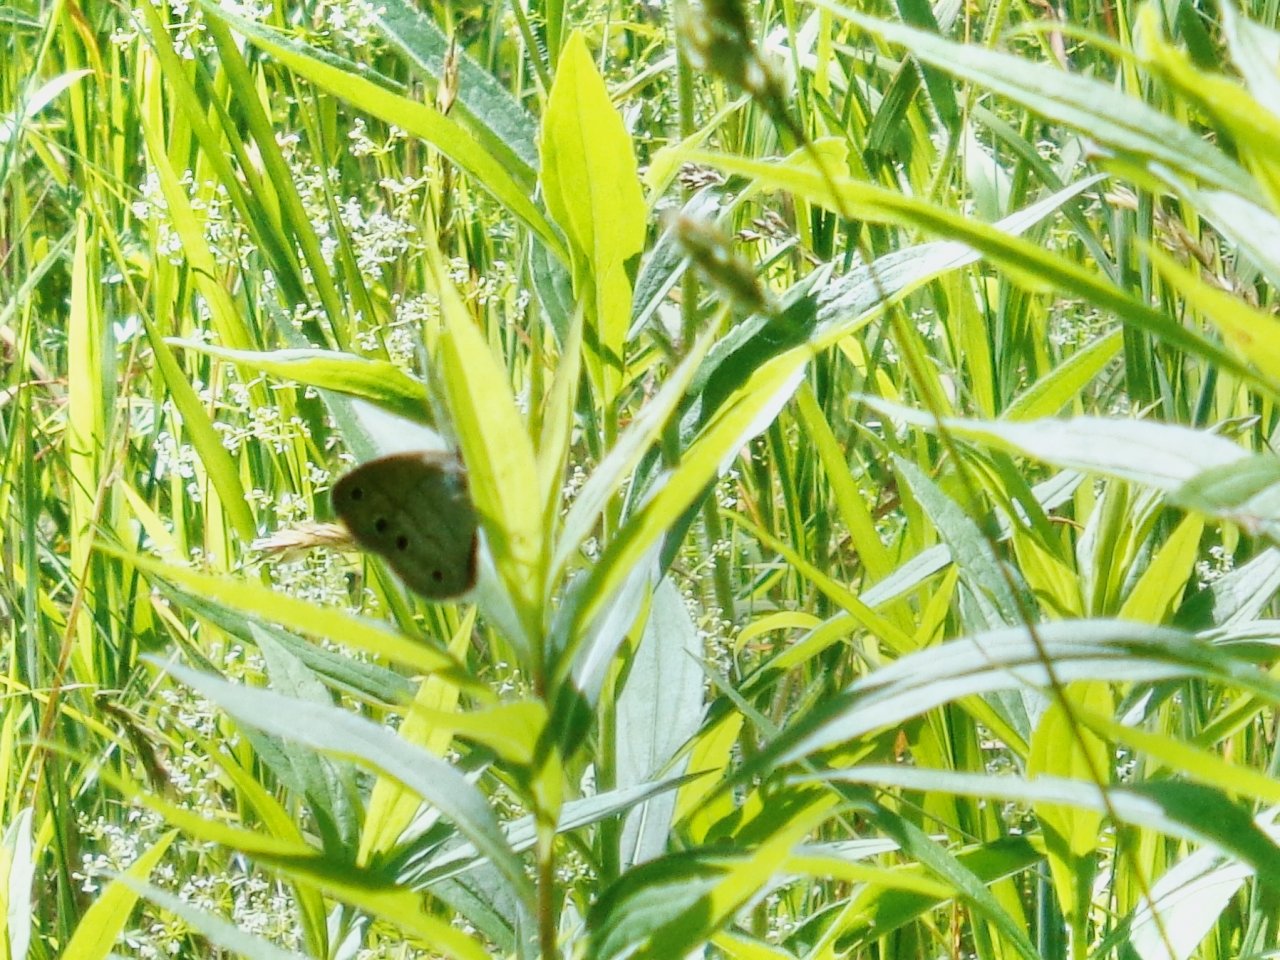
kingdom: Animalia
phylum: Arthropoda
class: Insecta
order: Lepidoptera
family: Nymphalidae
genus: Euptychia
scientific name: Euptychia cymela
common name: Little Wood Satyr
